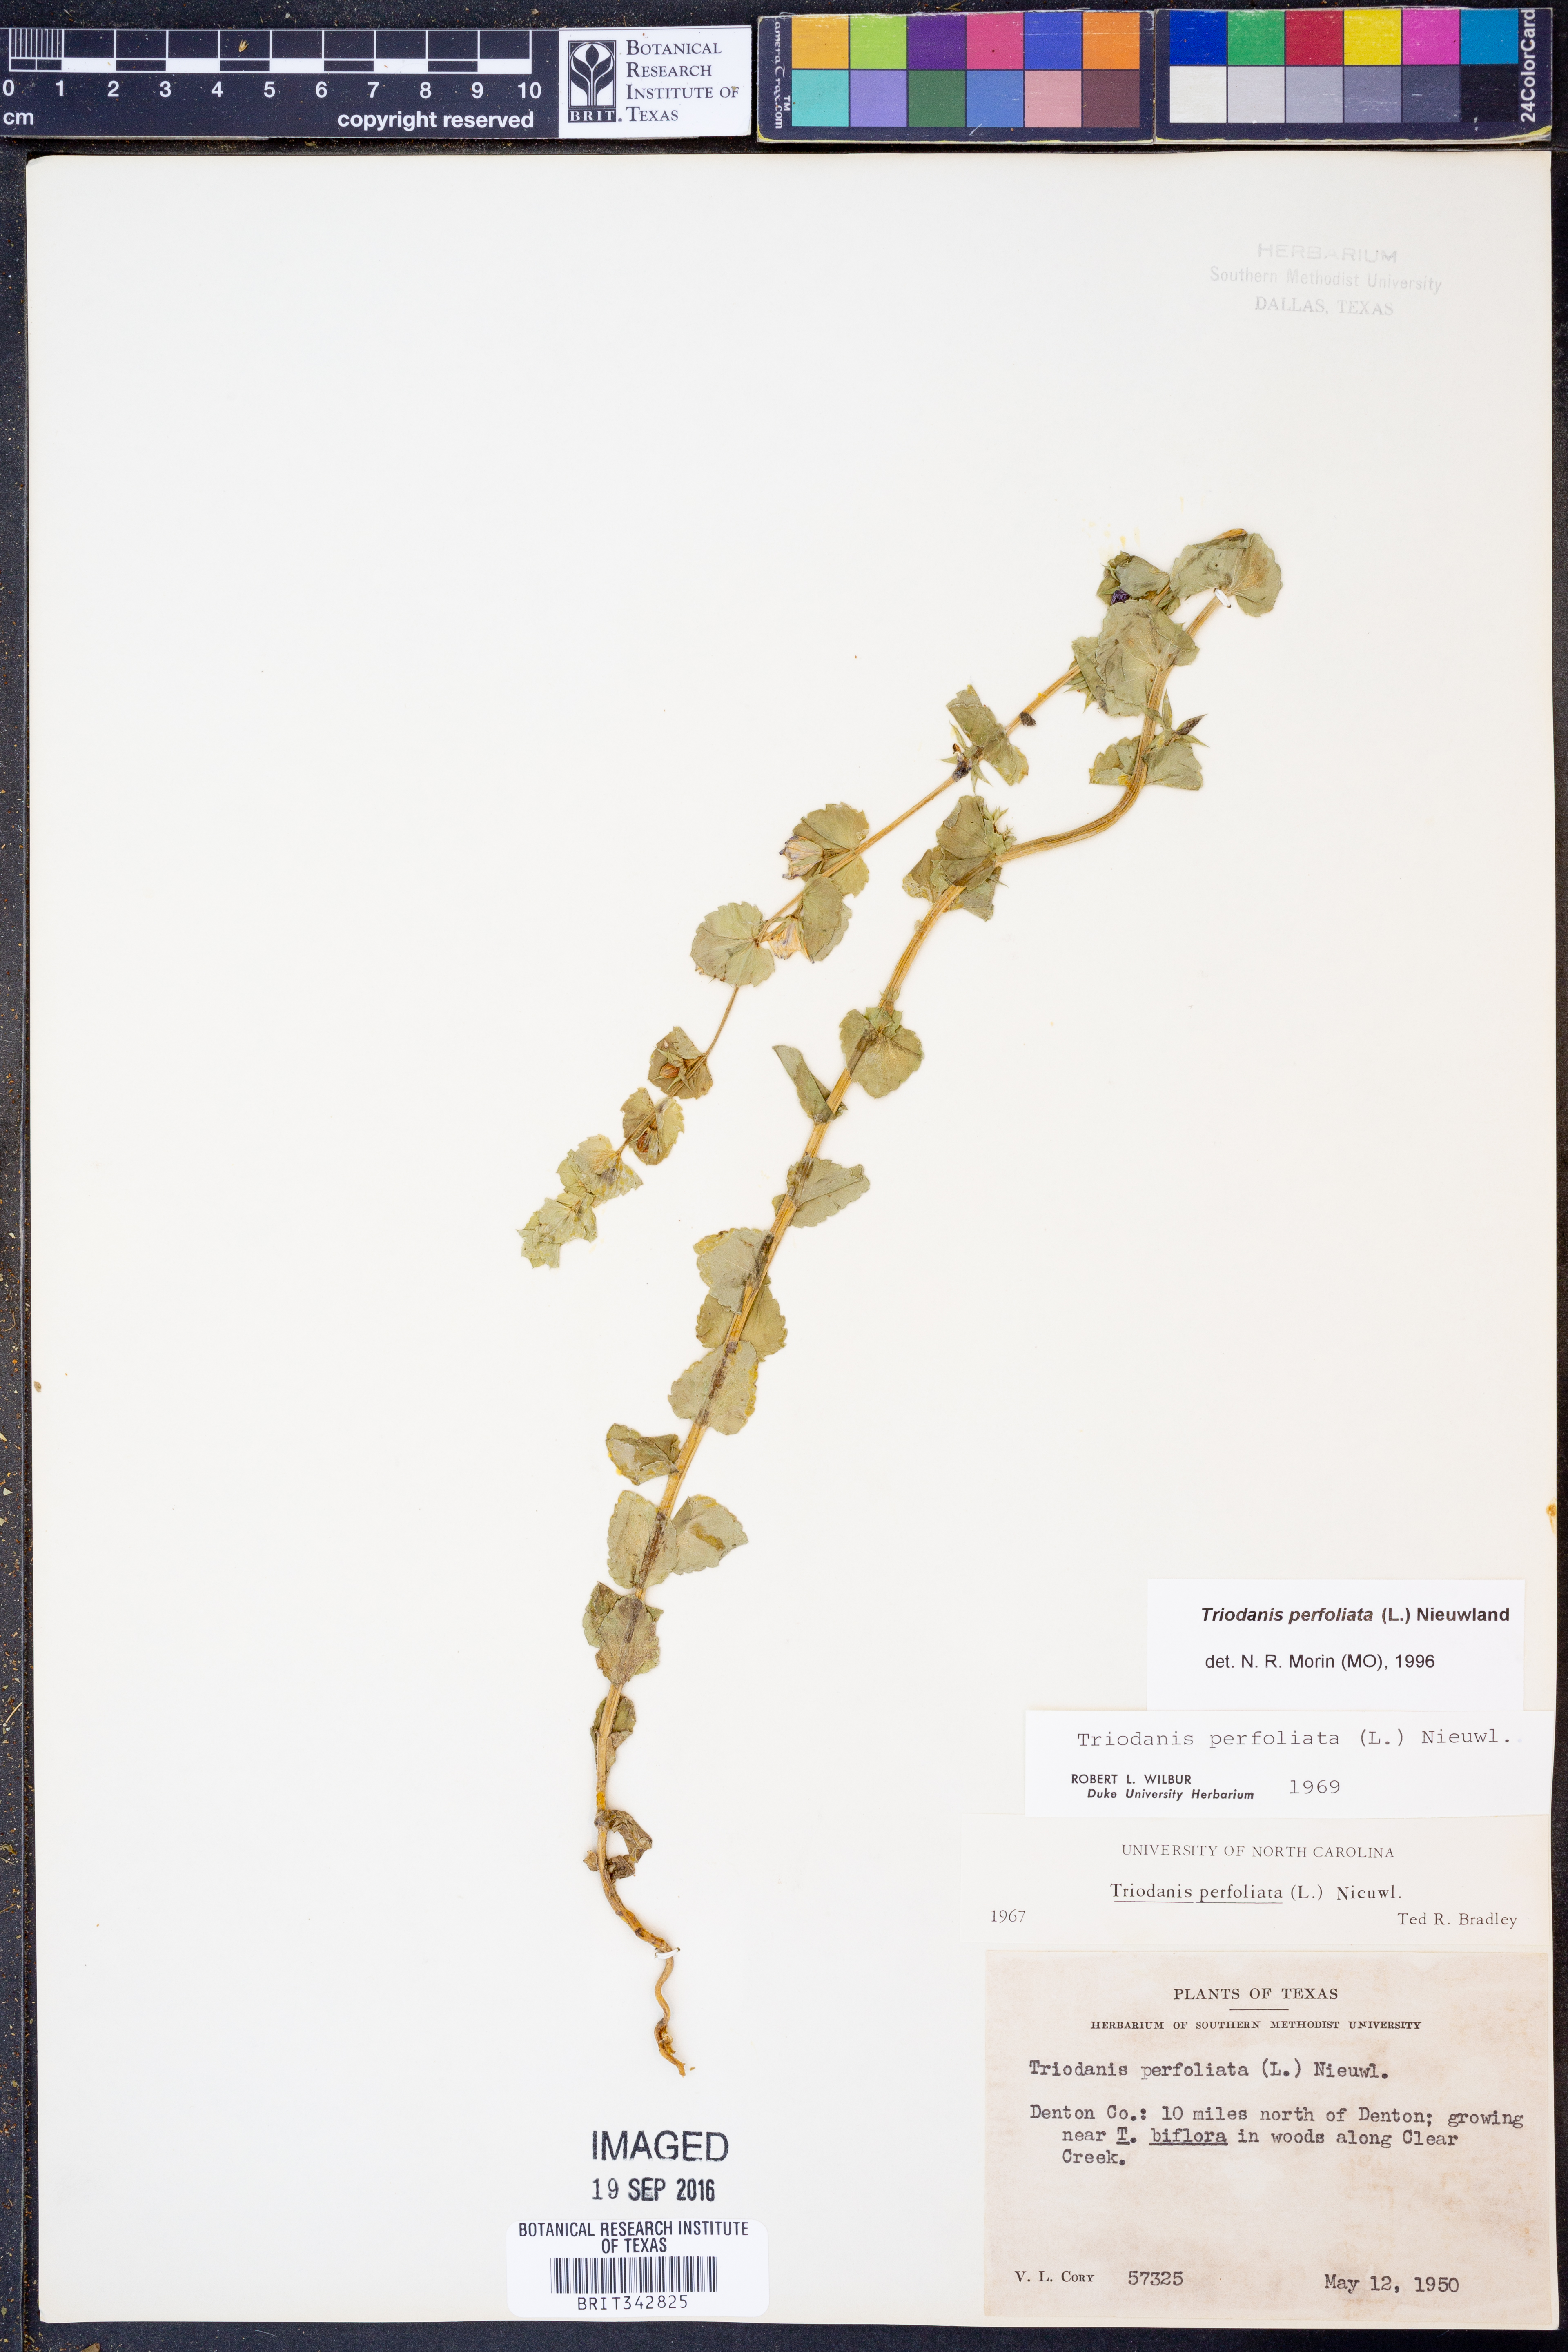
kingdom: Plantae
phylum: Tracheophyta
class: Magnoliopsida
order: Asterales
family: Campanulaceae
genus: Triodanis
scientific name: Triodanis perfoliata
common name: Clasping venus' looking-glass
